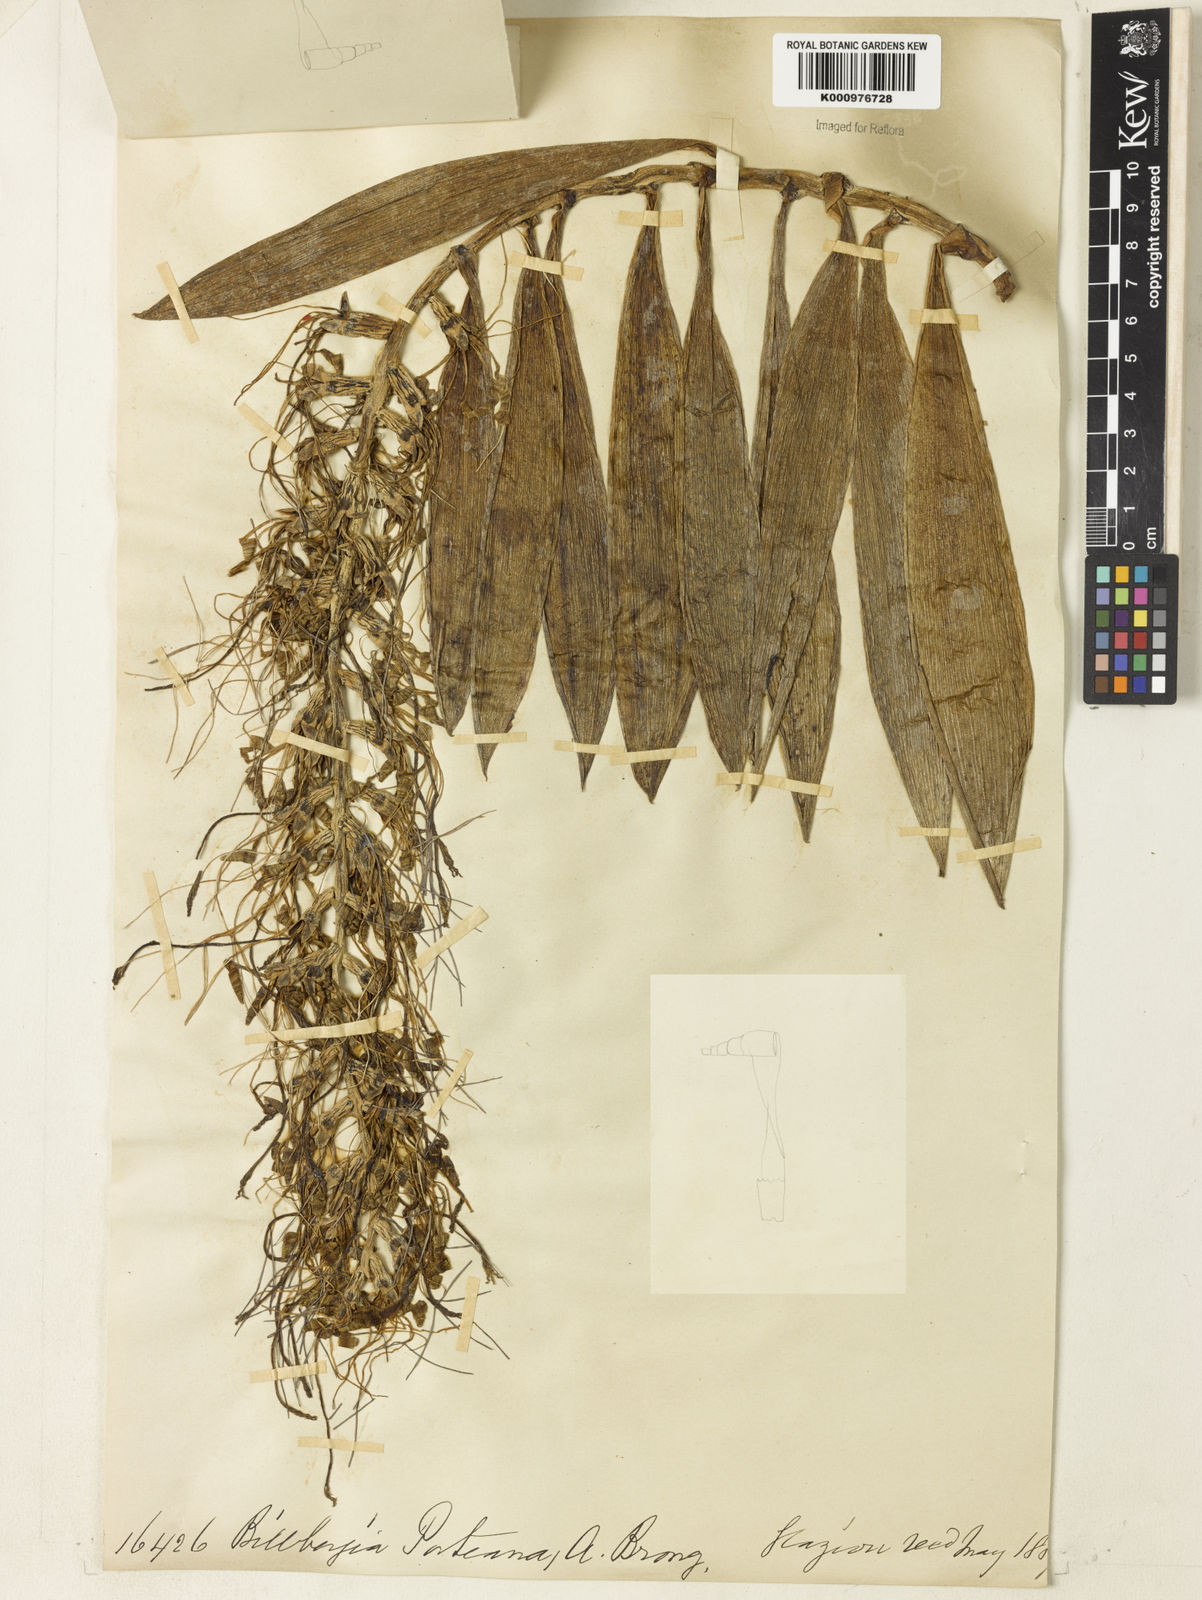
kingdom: Plantae
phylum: Tracheophyta
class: Liliopsida
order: Poales
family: Bromeliaceae
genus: Billbergia
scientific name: Billbergia porteana
